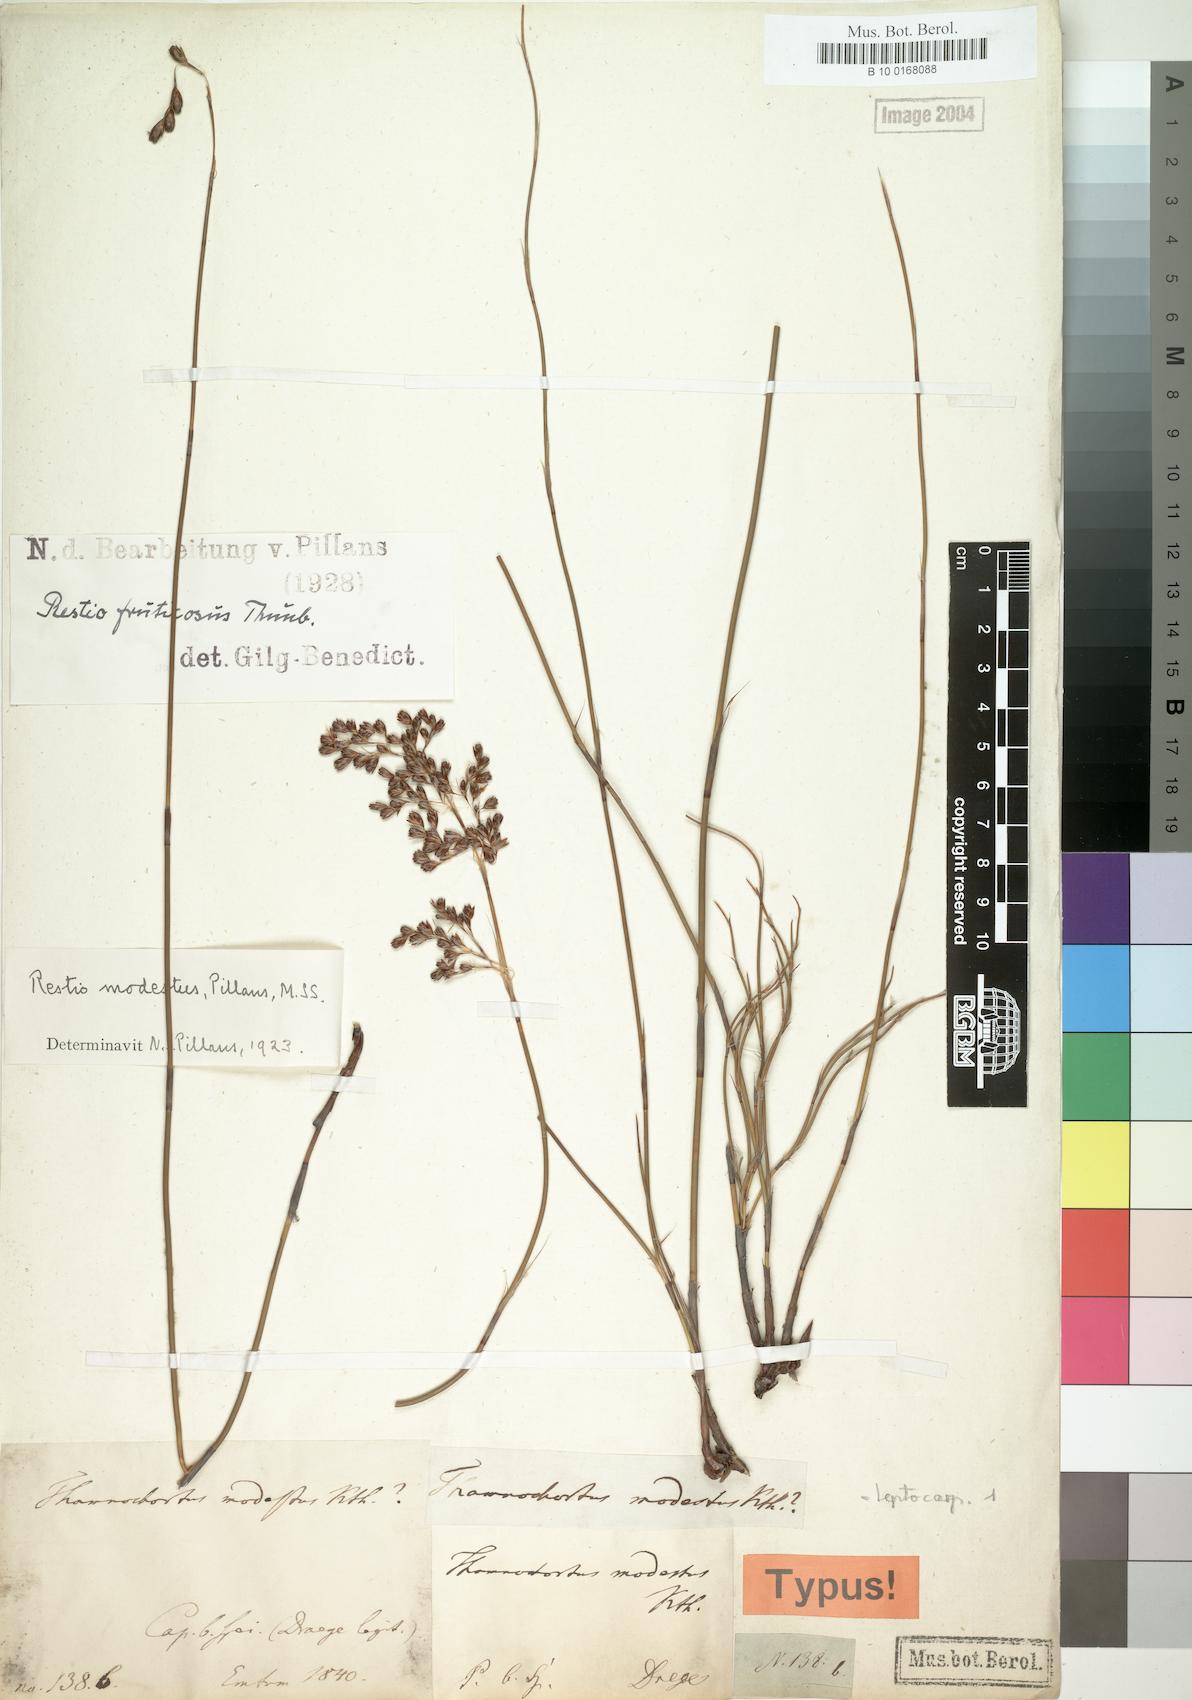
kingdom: Plantae
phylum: Tracheophyta
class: Liliopsida
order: Poales
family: Restionaceae
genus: Rhodocoma
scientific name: Rhodocoma fruticosa
